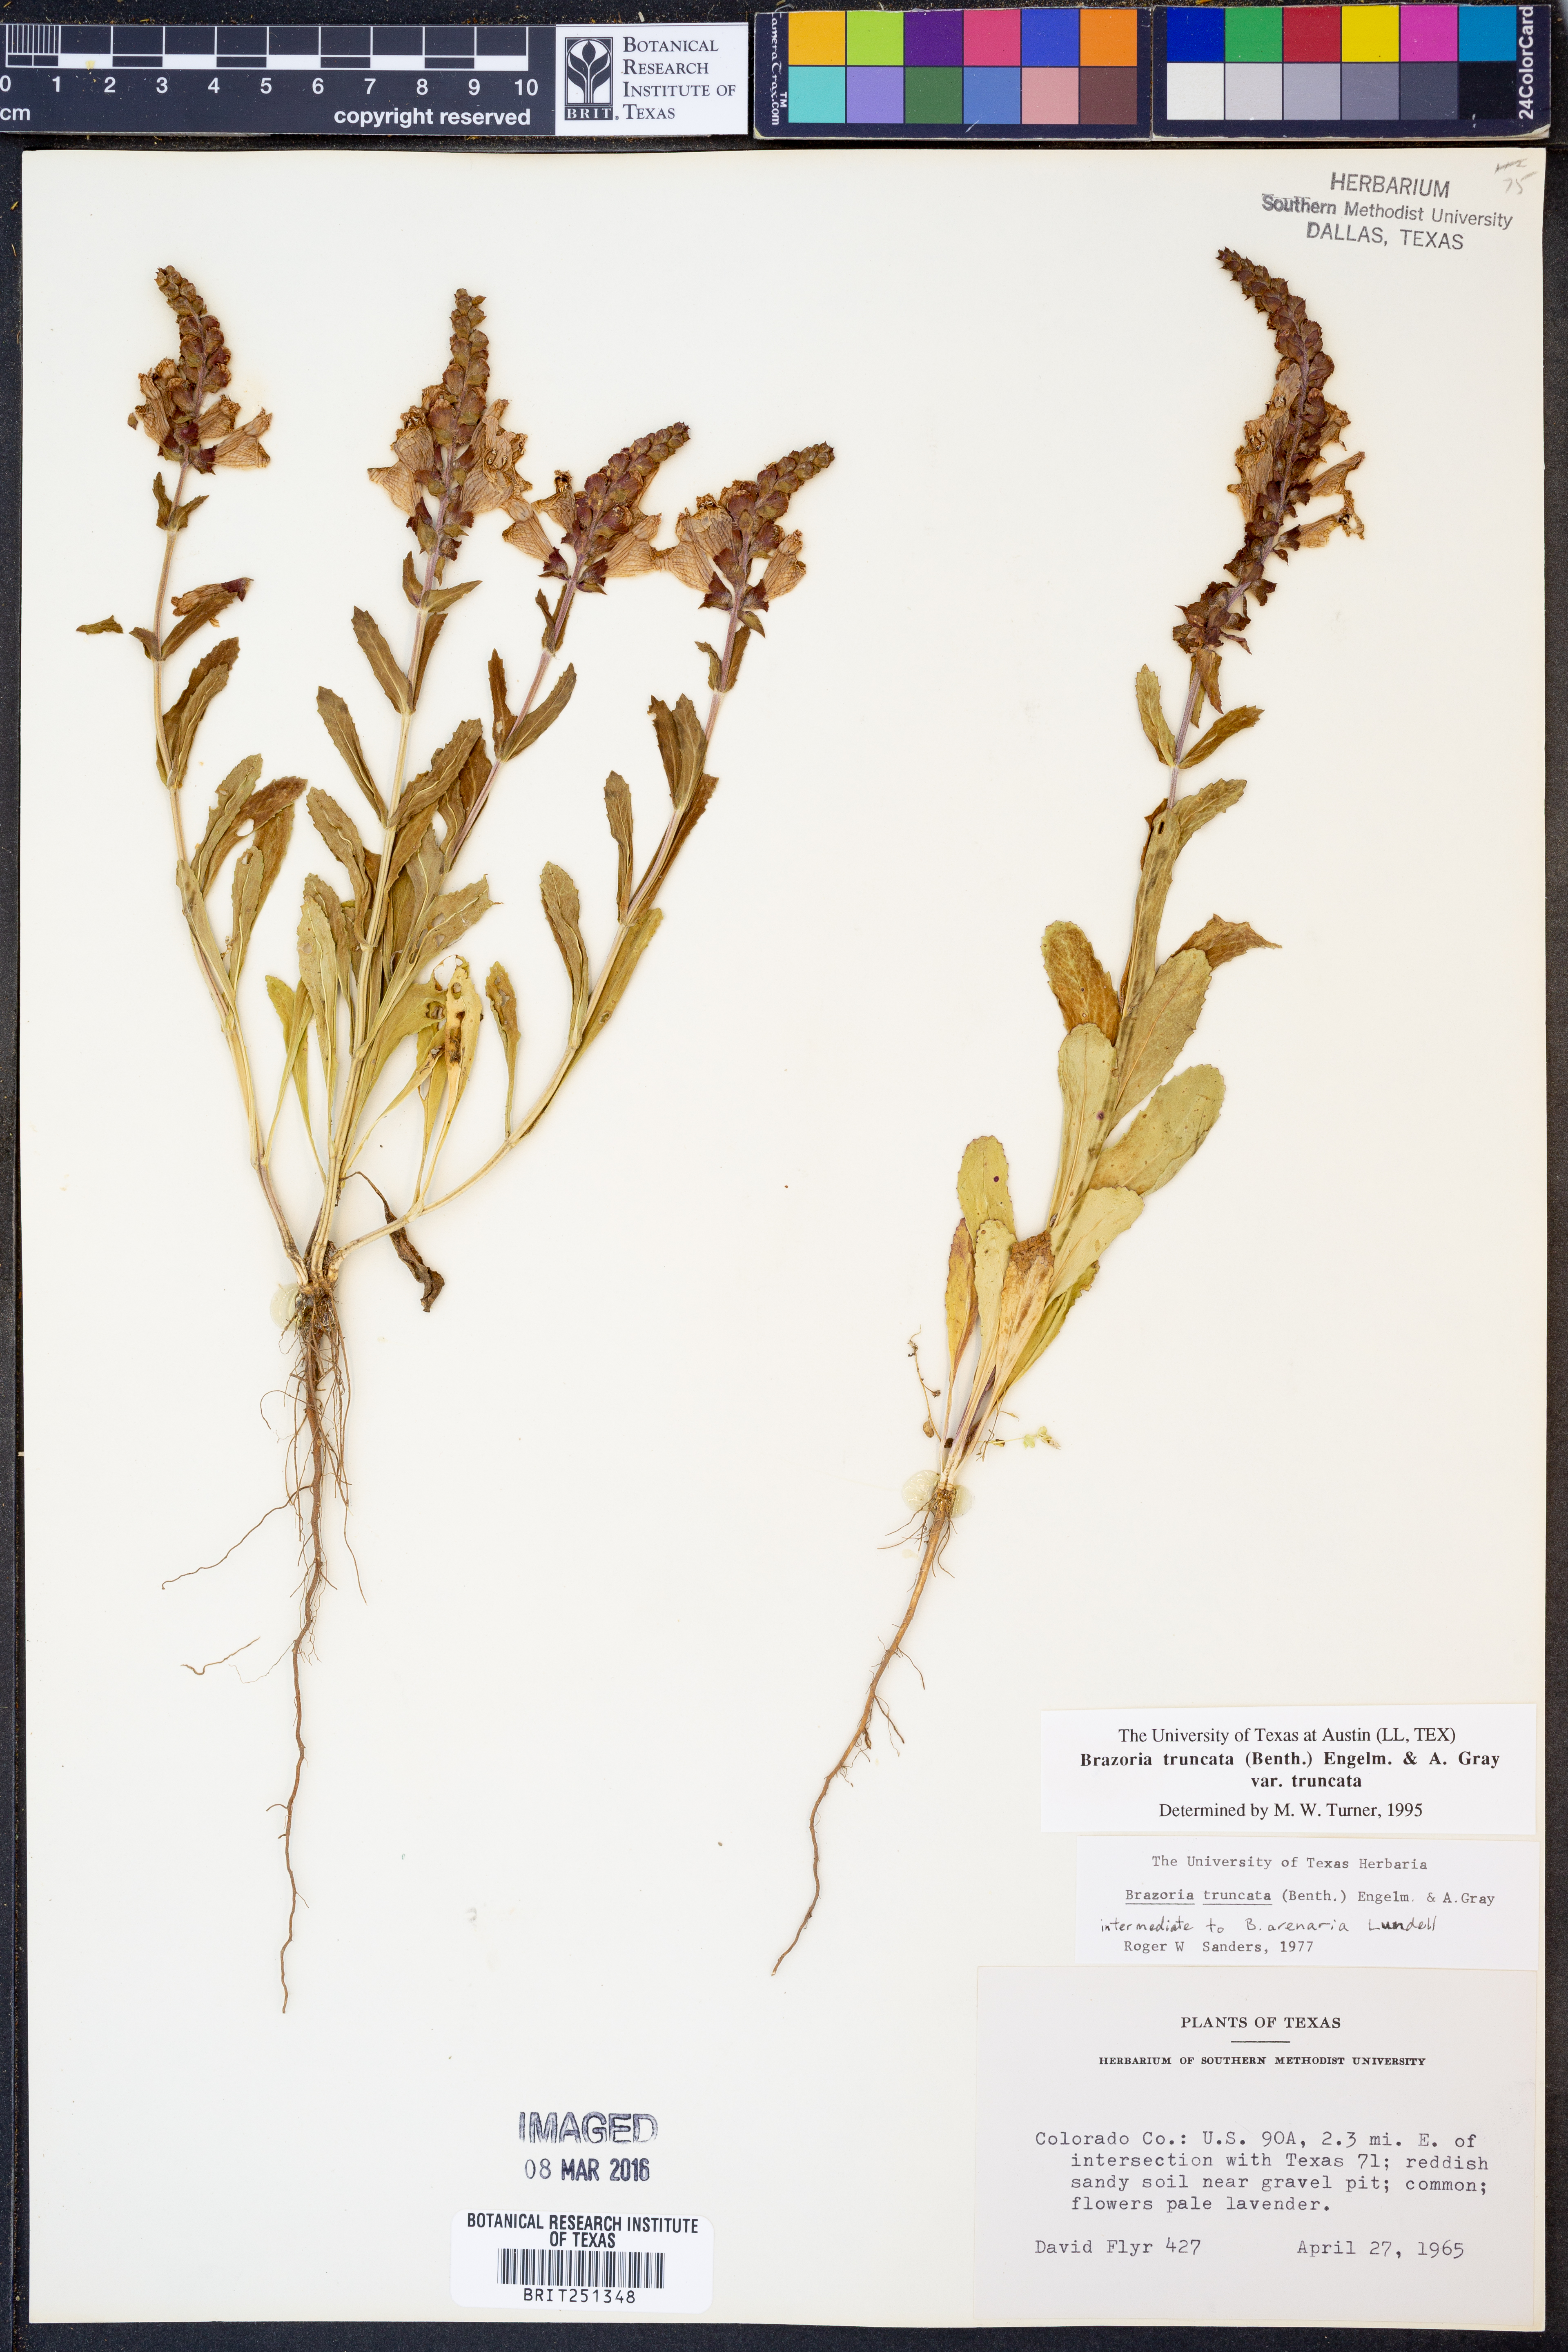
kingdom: Plantae
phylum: Tracheophyta
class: Magnoliopsida
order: Lamiales
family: Lamiaceae
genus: Brazoria
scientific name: Brazoria truncata
